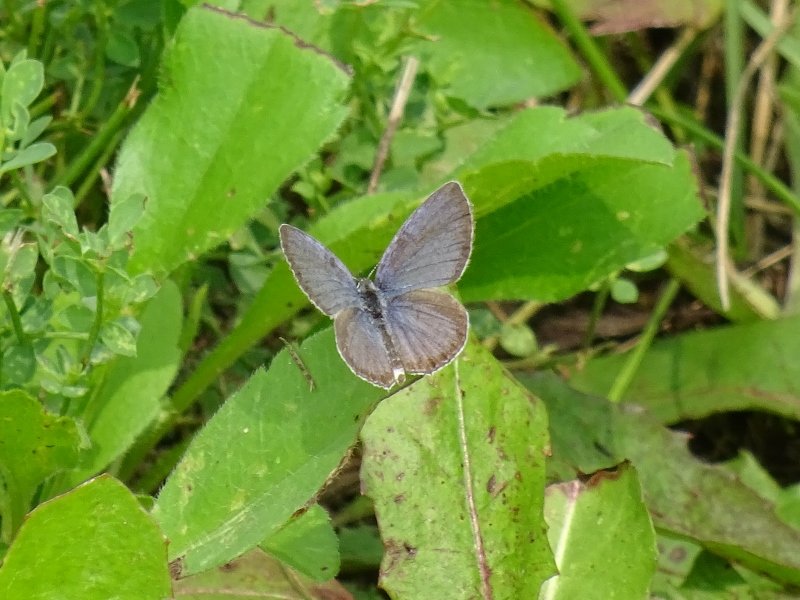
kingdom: Animalia
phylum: Arthropoda
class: Insecta
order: Lepidoptera
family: Lycaenidae
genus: Elkalyce
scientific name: Elkalyce comyntas
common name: Eastern Tailed-Blue
